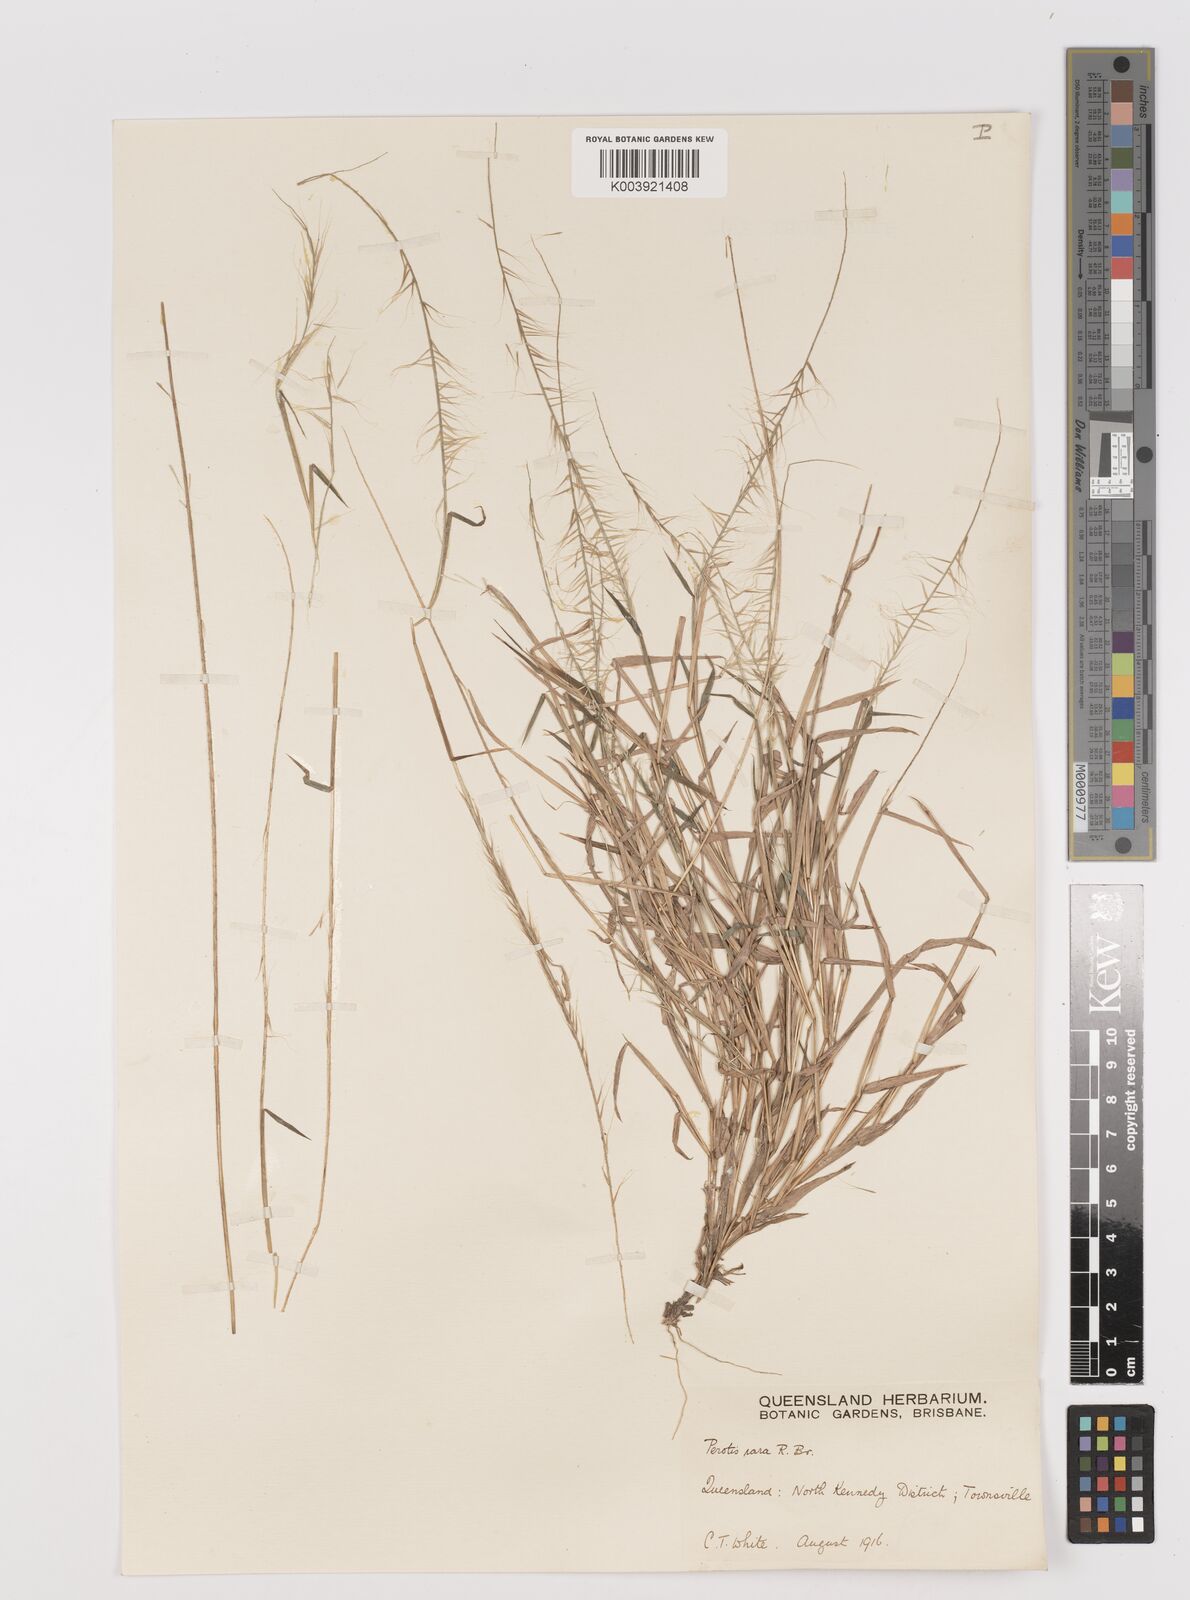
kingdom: Plantae
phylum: Tracheophyta
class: Liliopsida
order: Poales
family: Poaceae
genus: Perotis
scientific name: Perotis rara
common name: Comet grass
